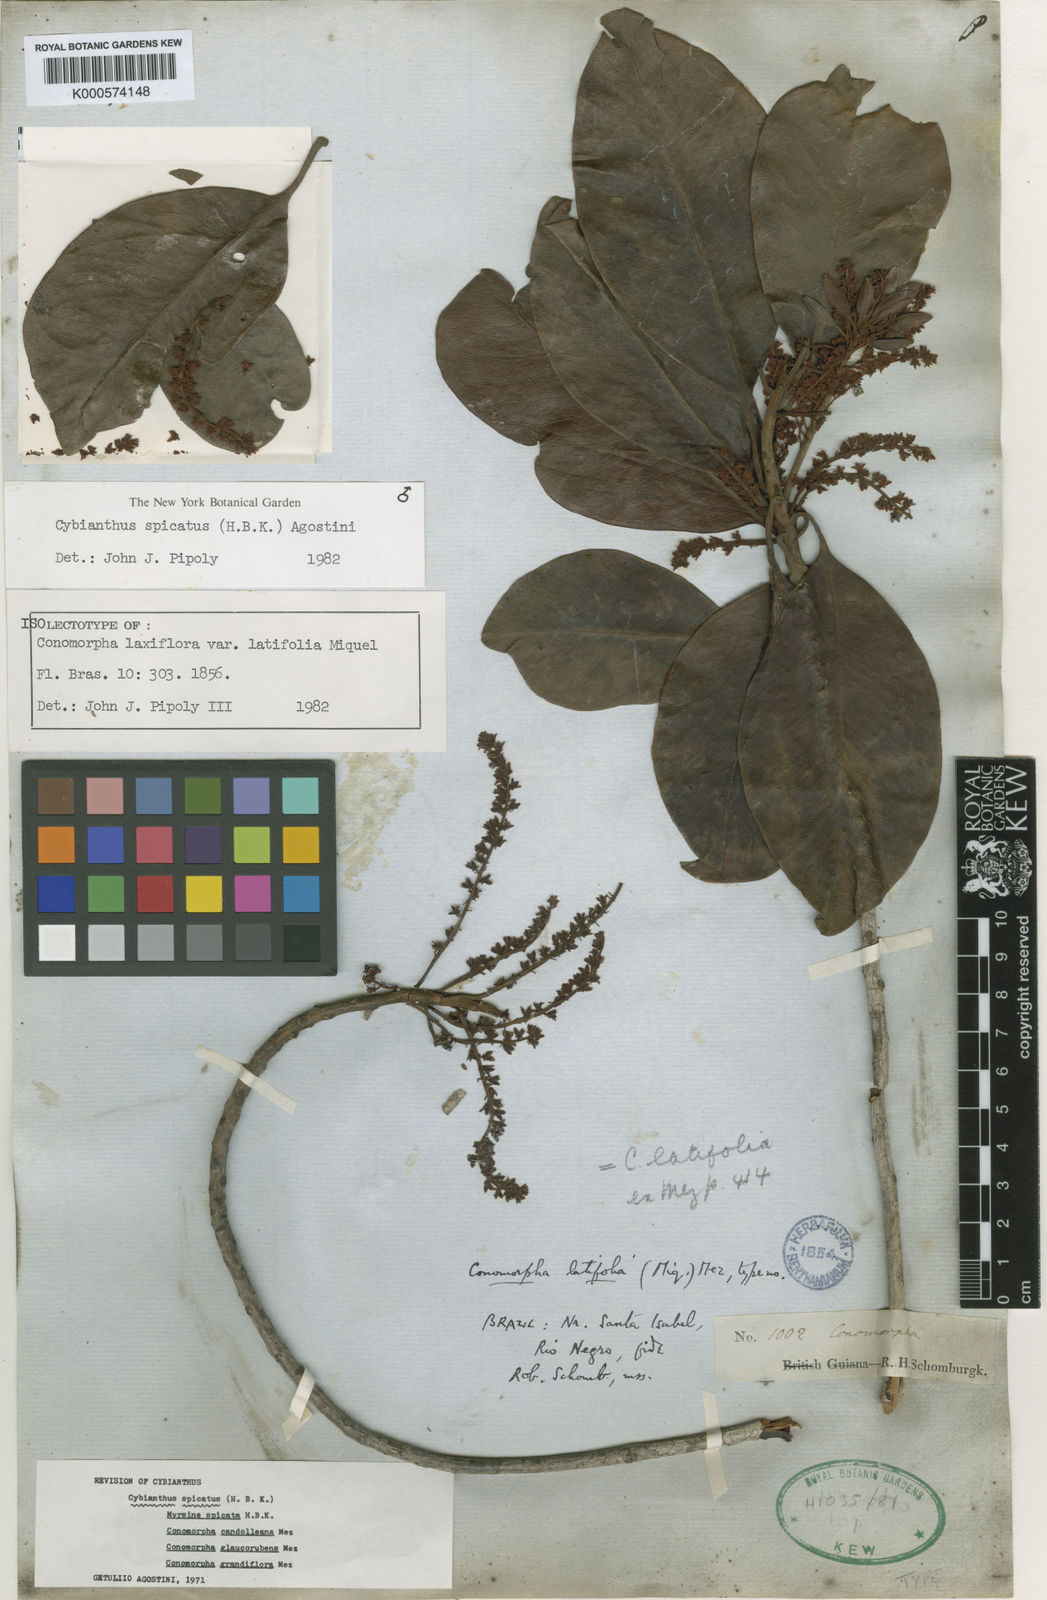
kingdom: Plantae
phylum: Tracheophyta
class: Magnoliopsida
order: Ericales
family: Primulaceae
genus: Cybianthus
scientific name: Cybianthus spicatus
